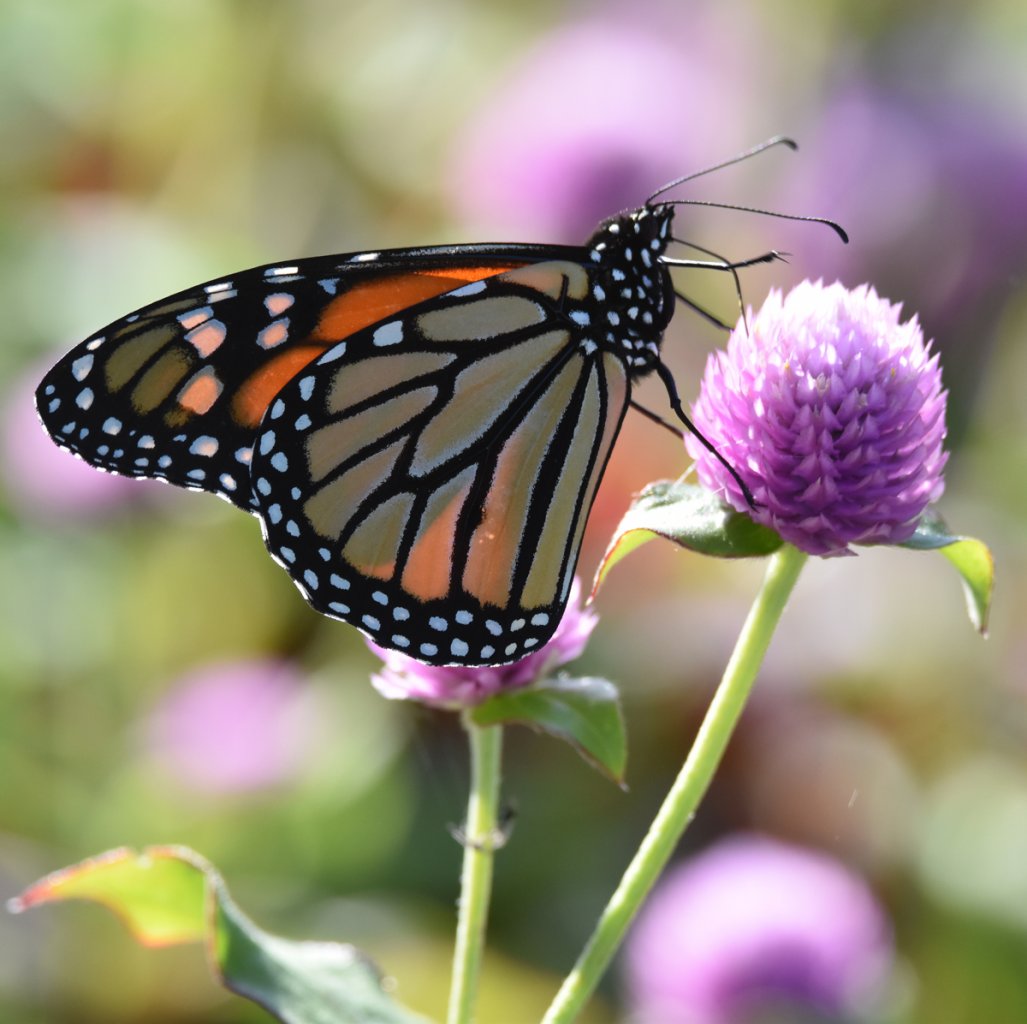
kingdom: Animalia
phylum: Arthropoda
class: Insecta
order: Lepidoptera
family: Nymphalidae
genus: Danaus
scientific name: Danaus plexippus
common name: Monarch
